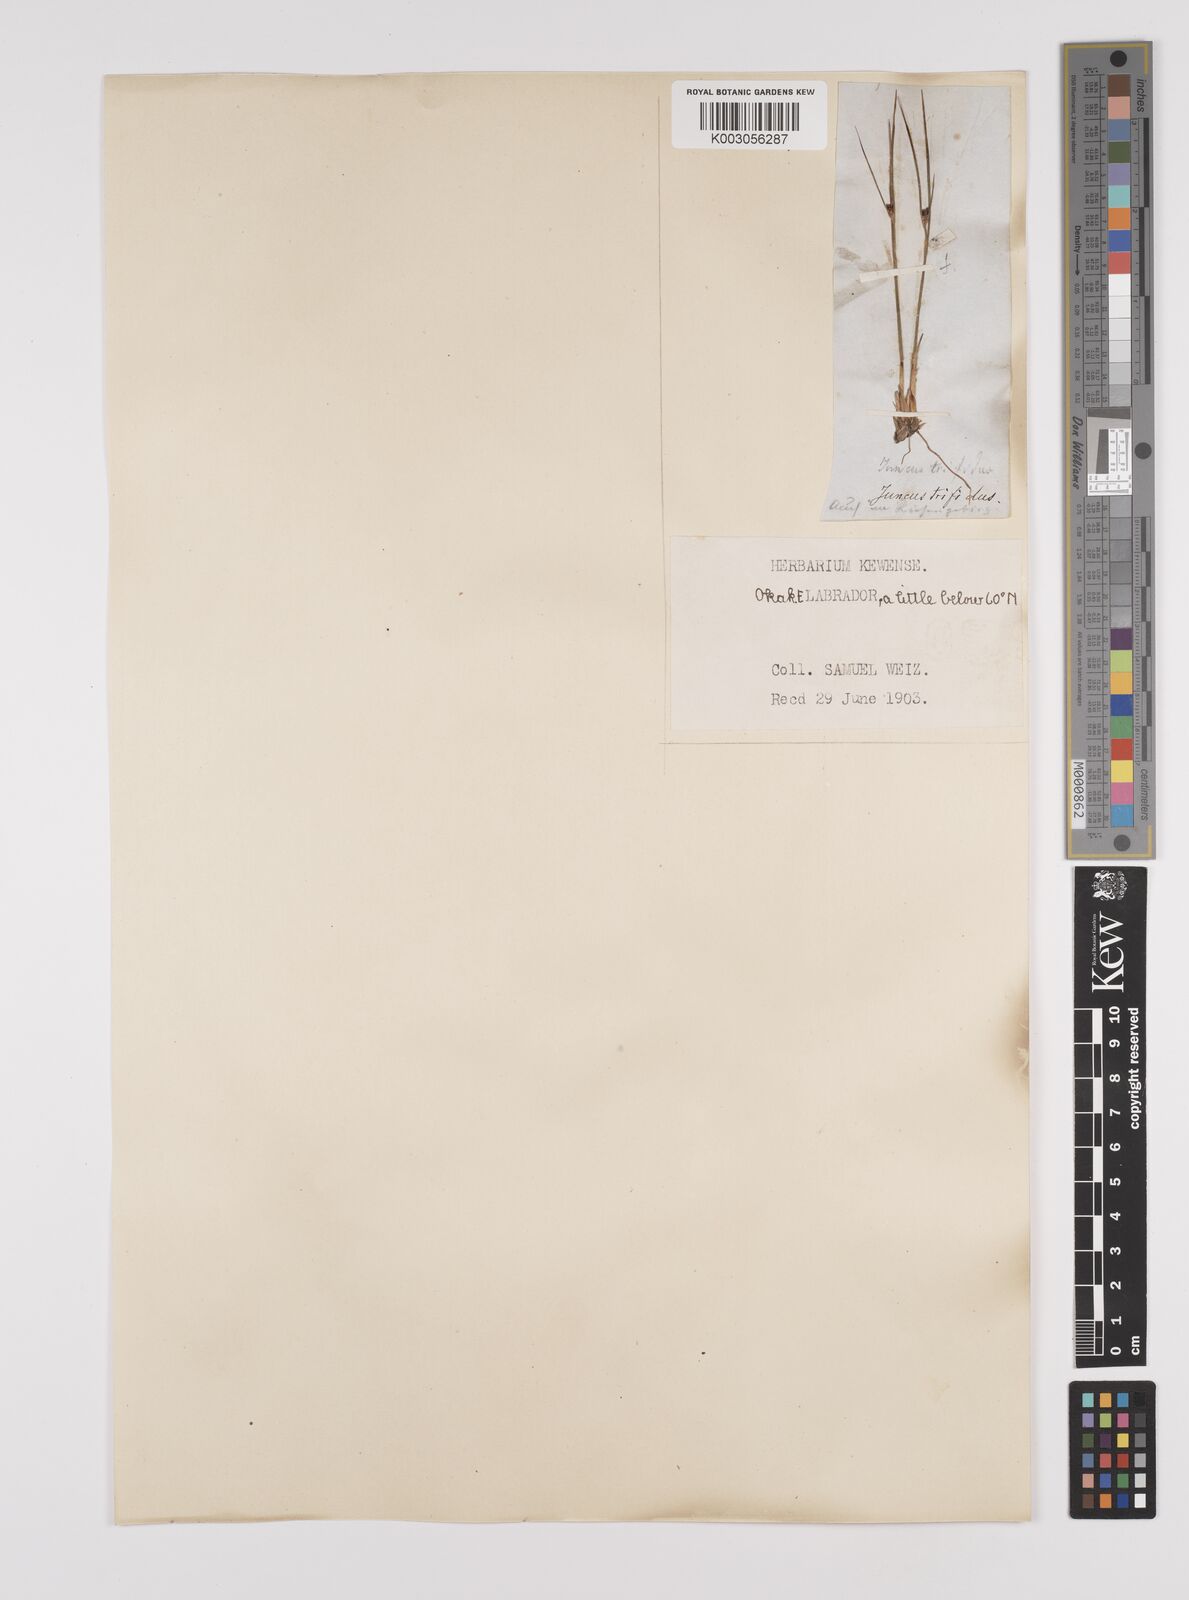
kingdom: Plantae
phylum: Tracheophyta
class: Liliopsida
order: Poales
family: Juncaceae
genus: Oreojuncus
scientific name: Oreojuncus trifidus
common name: Highland rush
